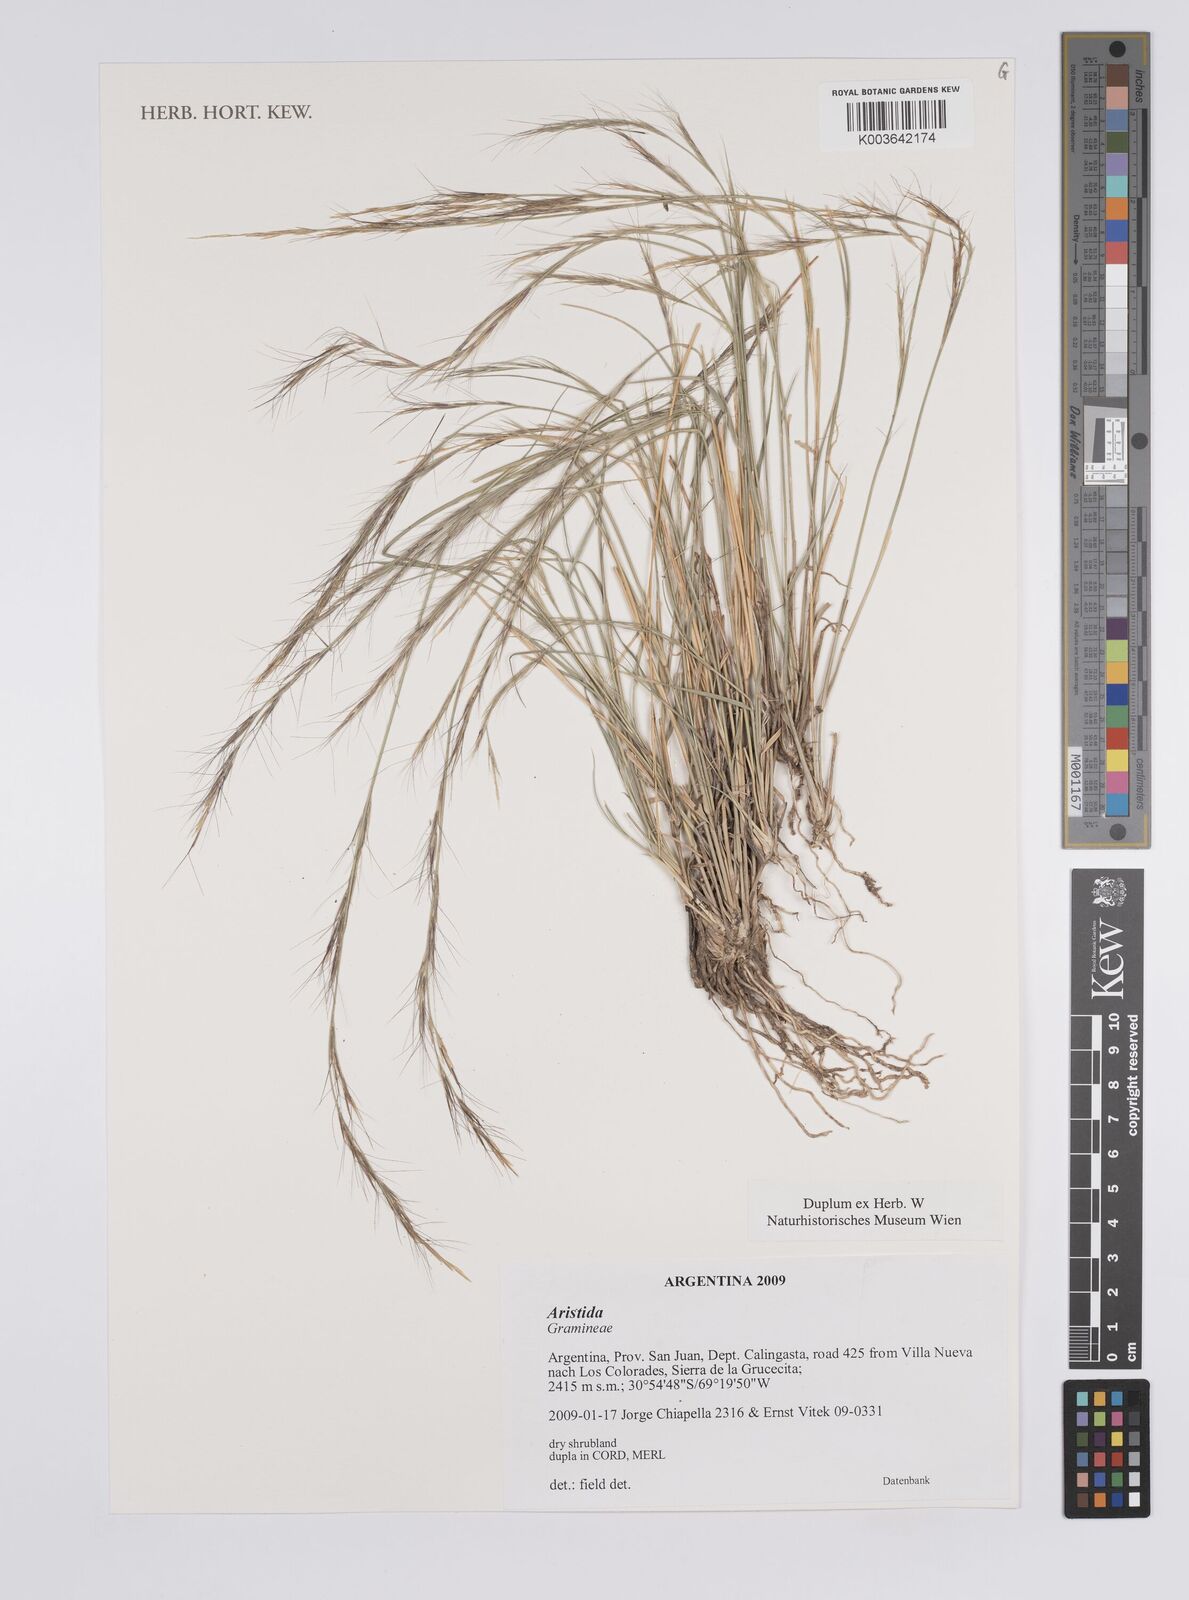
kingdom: Plantae
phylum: Tracheophyta
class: Liliopsida
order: Poales
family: Poaceae
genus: Aristida
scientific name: Aristida
